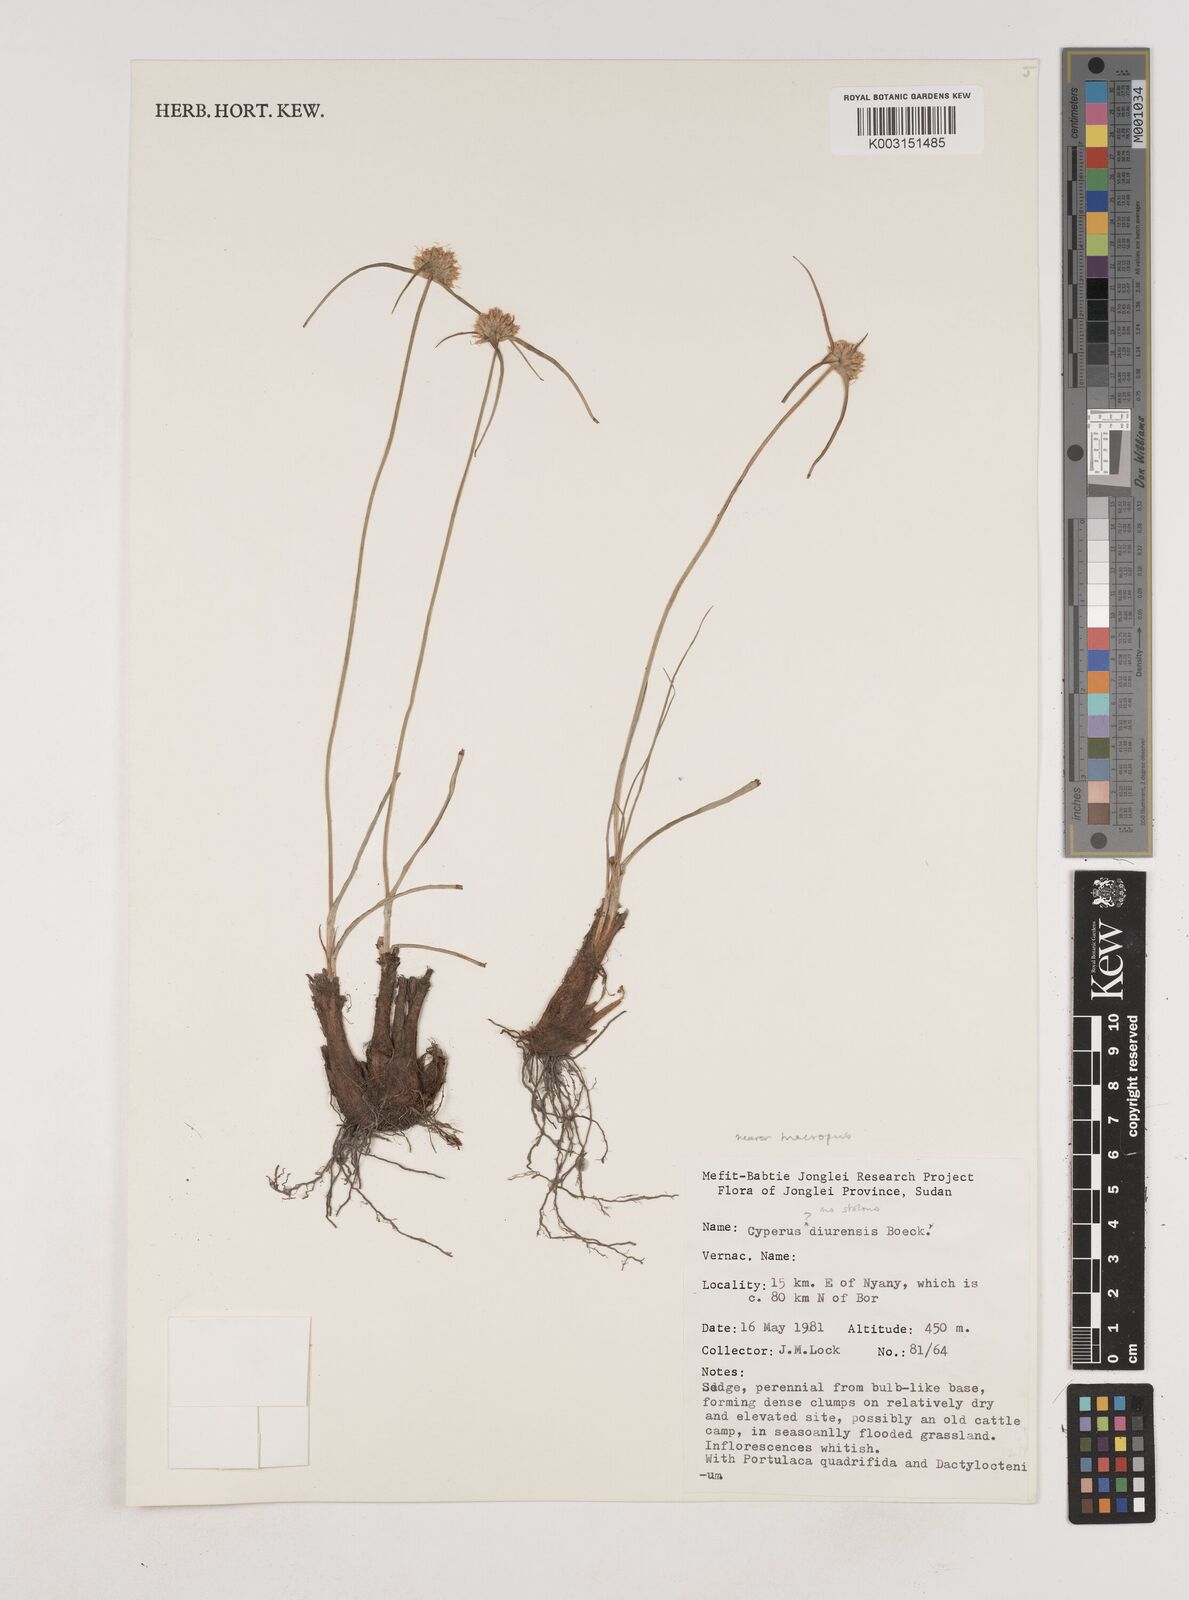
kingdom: Plantae
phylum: Tracheophyta
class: Liliopsida
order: Poales
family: Cyperaceae
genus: Cyperus
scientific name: Cyperus mollipes
